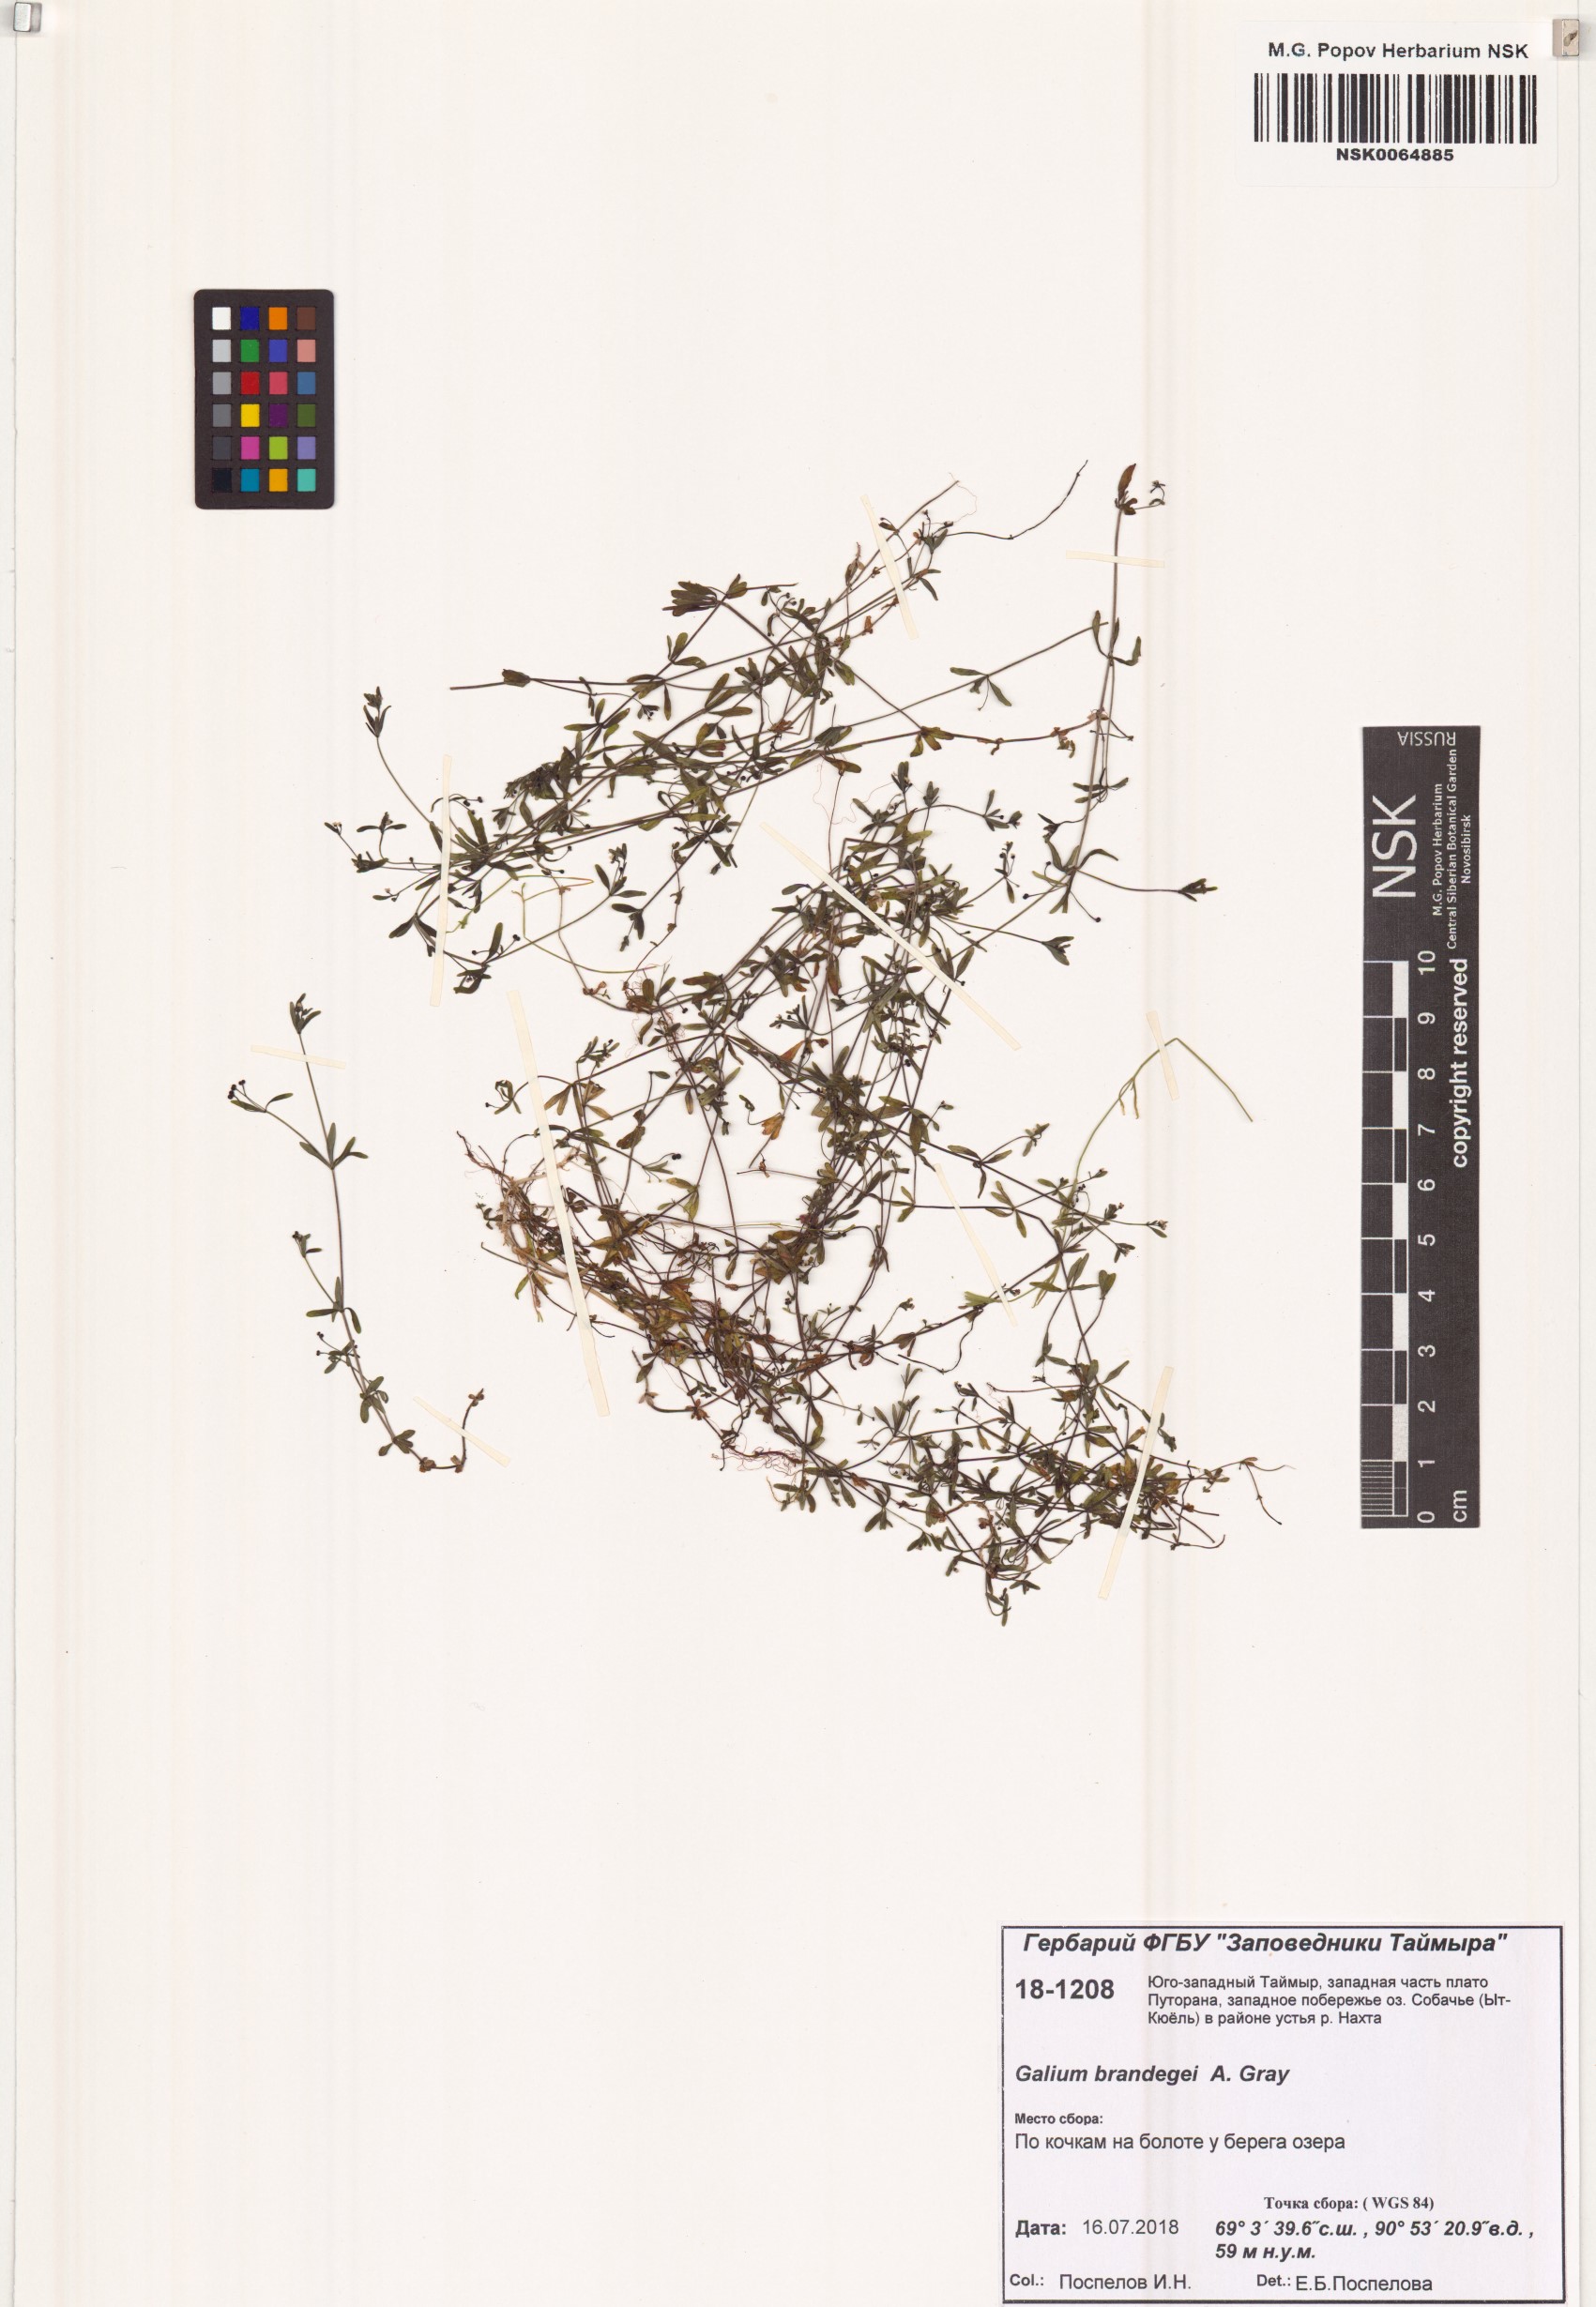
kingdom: Plantae
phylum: Tracheophyta
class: Magnoliopsida
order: Gentianales
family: Rubiaceae
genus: Galium
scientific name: Galium trifidum
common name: Small bedstraw
